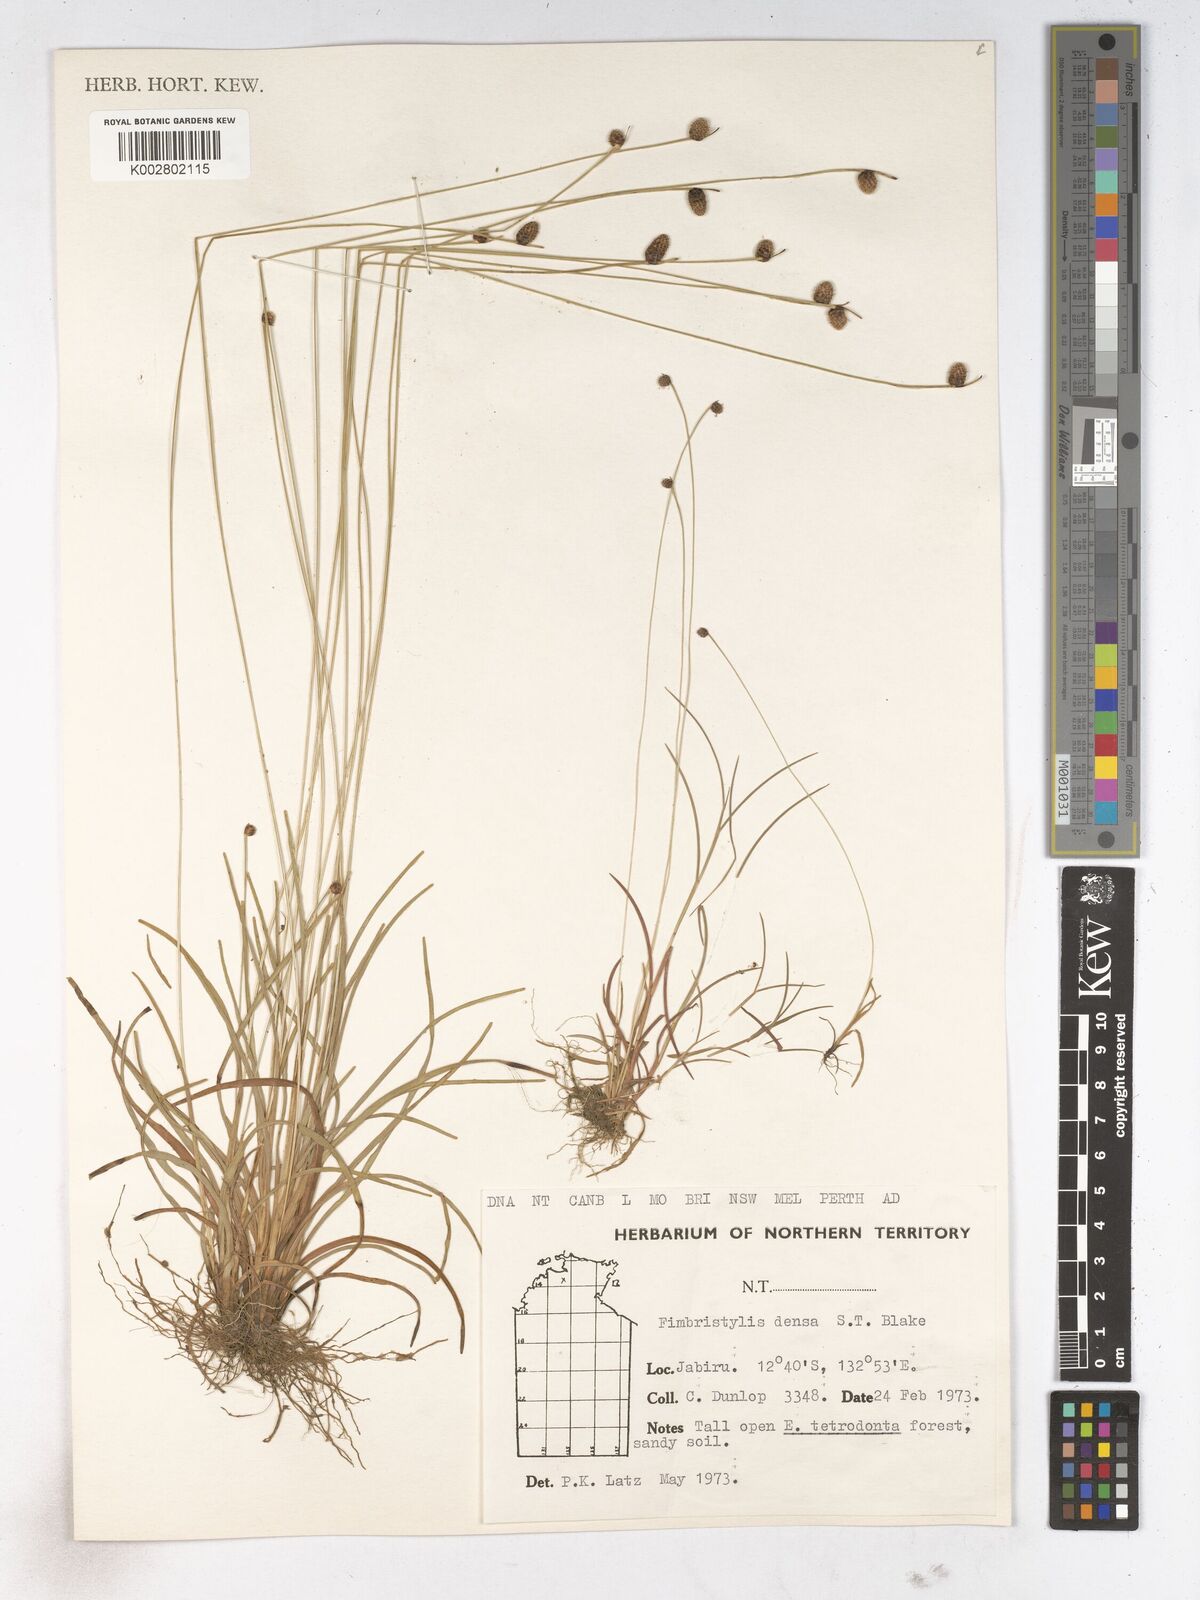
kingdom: Plantae
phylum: Tracheophyta
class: Liliopsida
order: Poales
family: Cyperaceae
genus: Fimbristylis
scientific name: Fimbristylis densa
